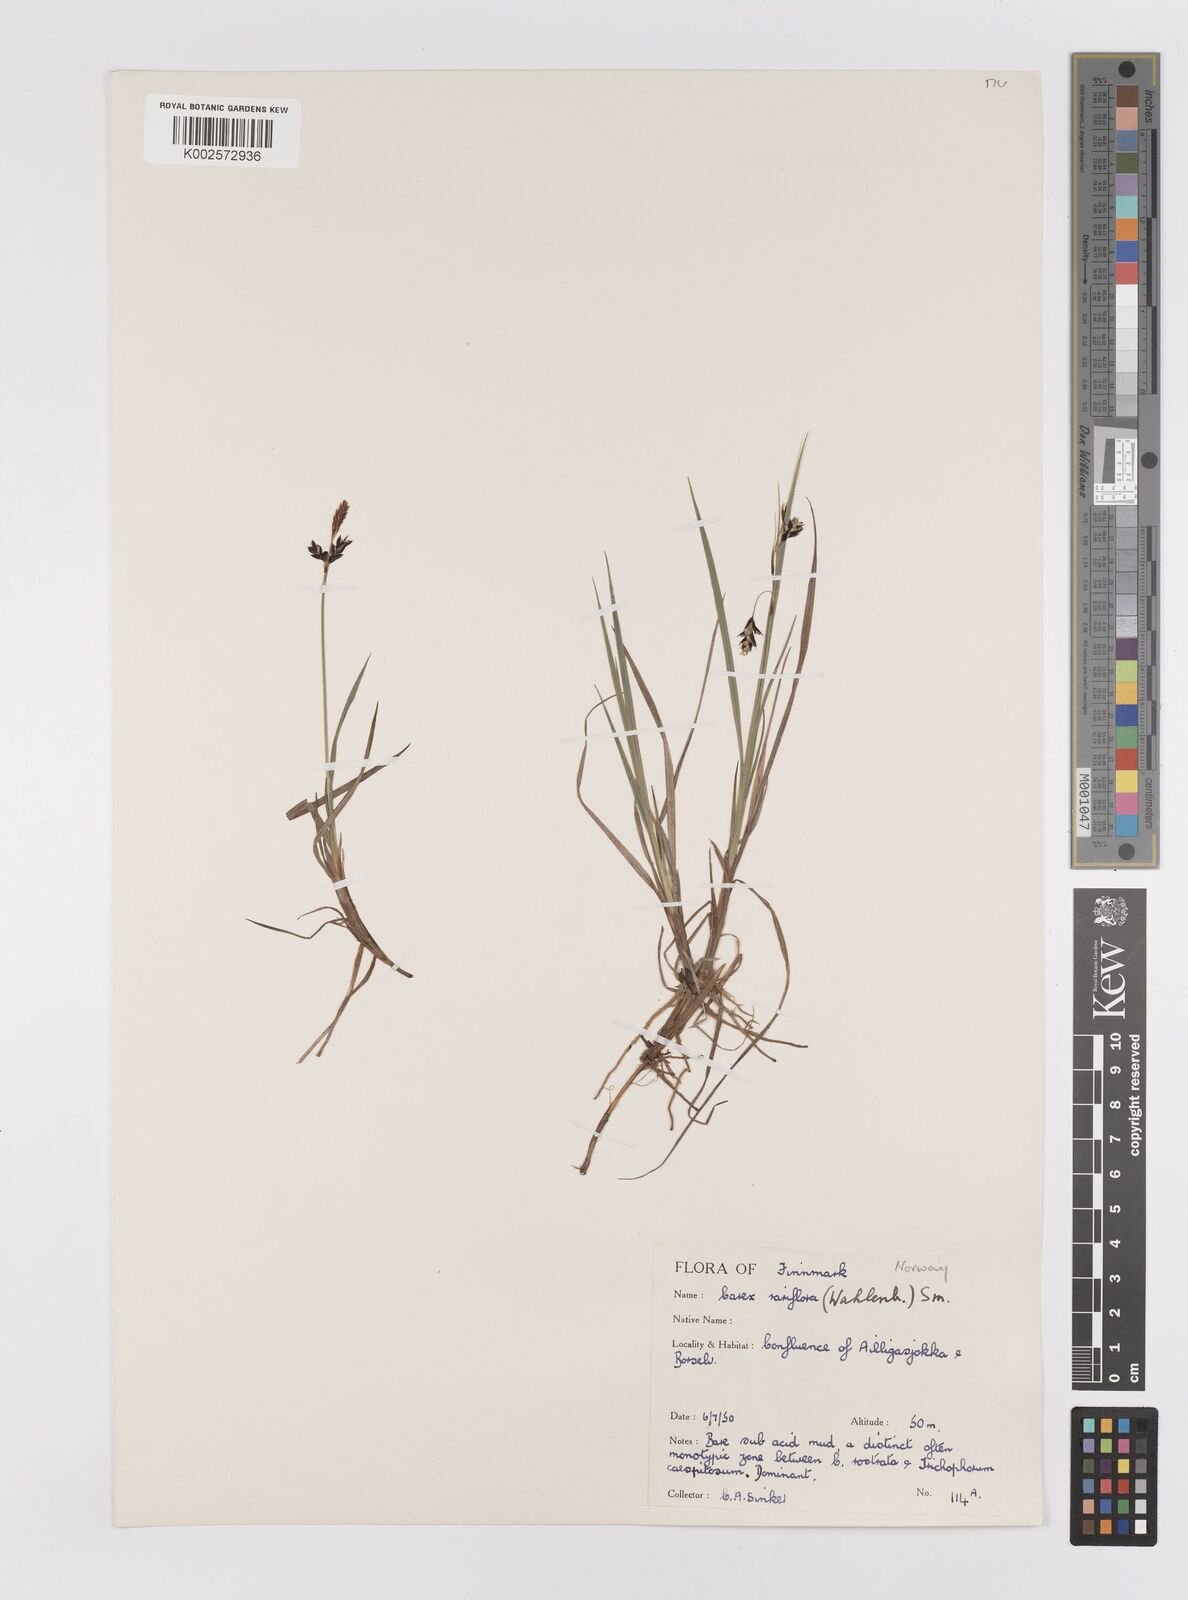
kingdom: Plantae
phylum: Tracheophyta
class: Liliopsida
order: Poales
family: Cyperaceae
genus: Carex
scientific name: Carex rariflora
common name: Loose-flowered alpine sedge
